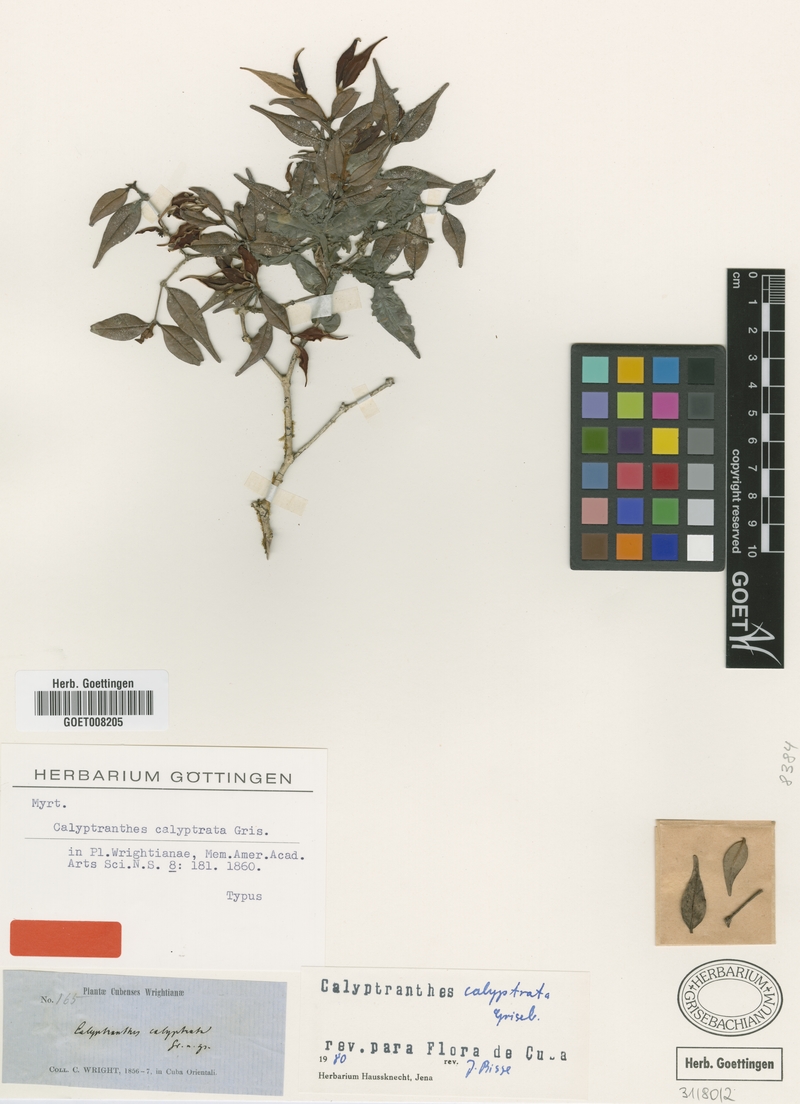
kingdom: Plantae
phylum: Tracheophyta
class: Magnoliopsida
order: Myrtales
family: Myrtaceae
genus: Myrcia
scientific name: Myrcia calyptrata
